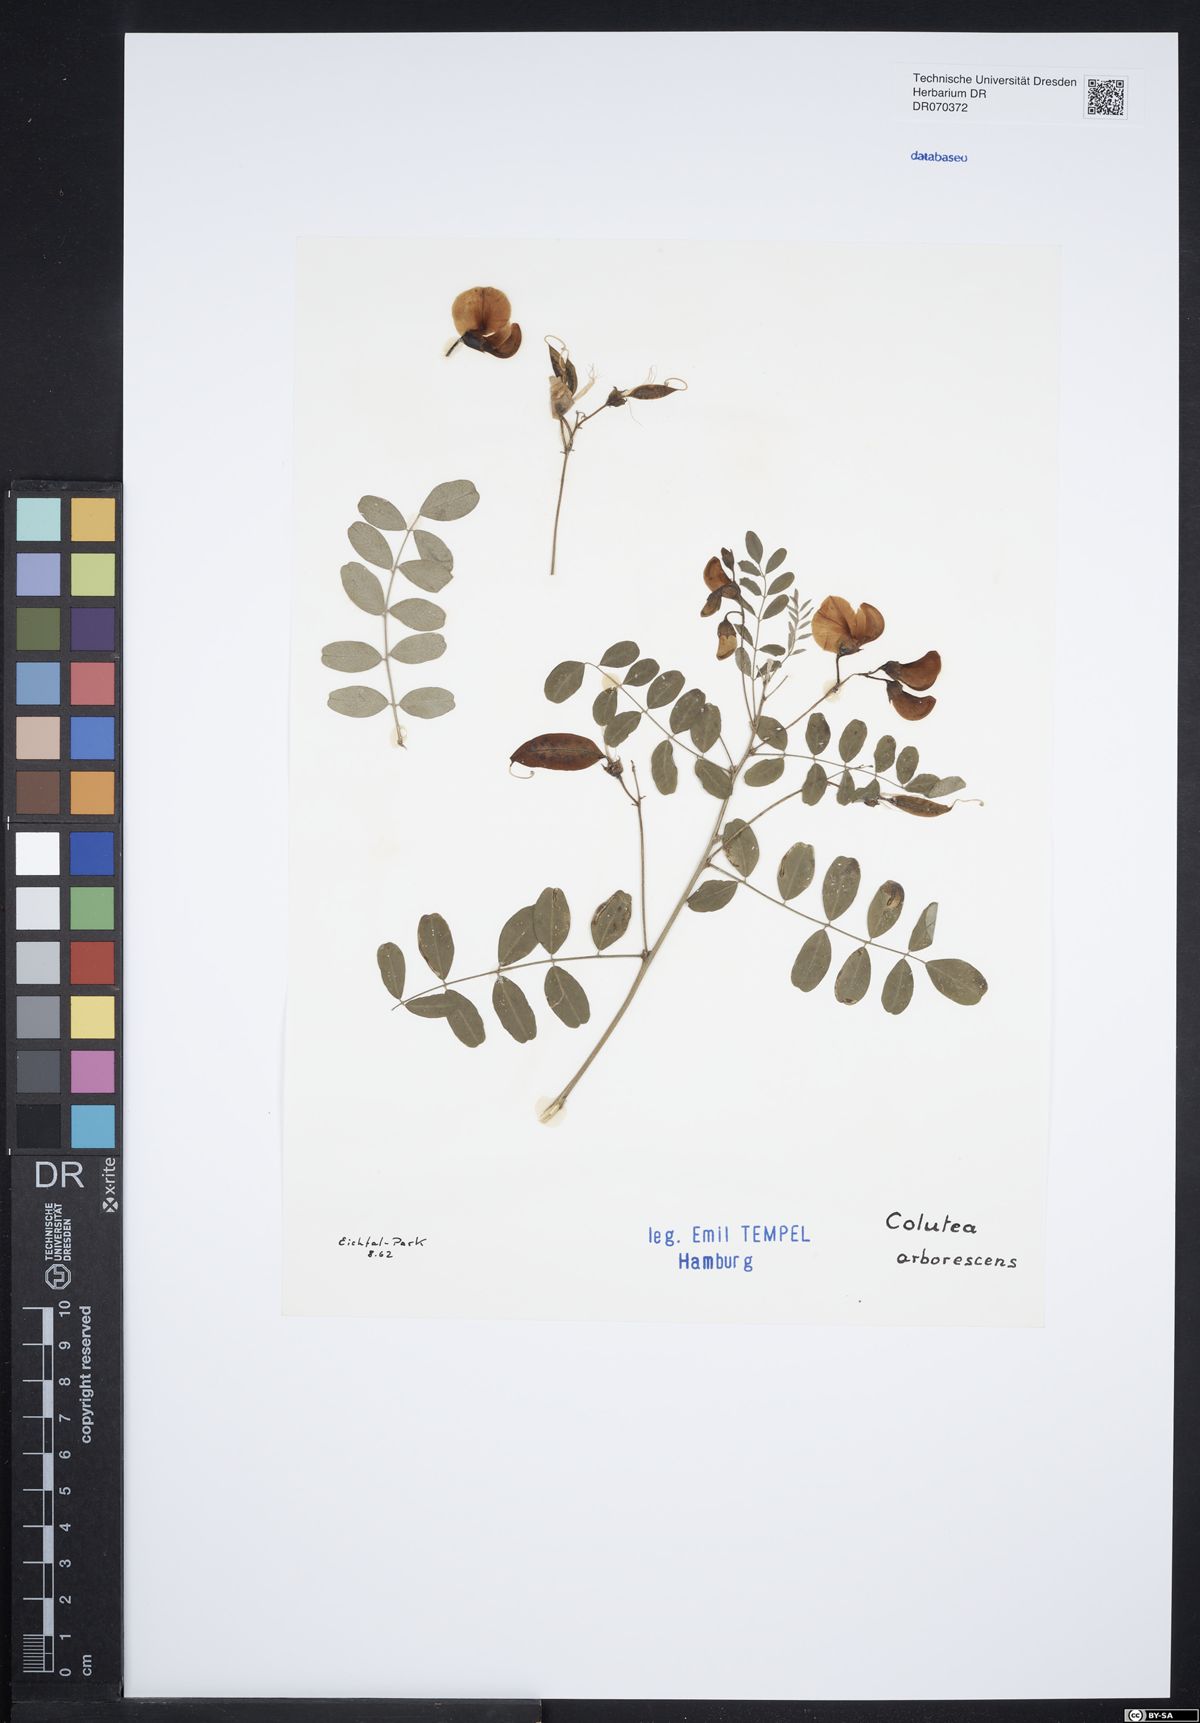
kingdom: Plantae
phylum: Tracheophyta
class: Magnoliopsida
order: Fabales
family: Fabaceae
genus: Colutea
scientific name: Colutea arborescens
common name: Bladder-senna
